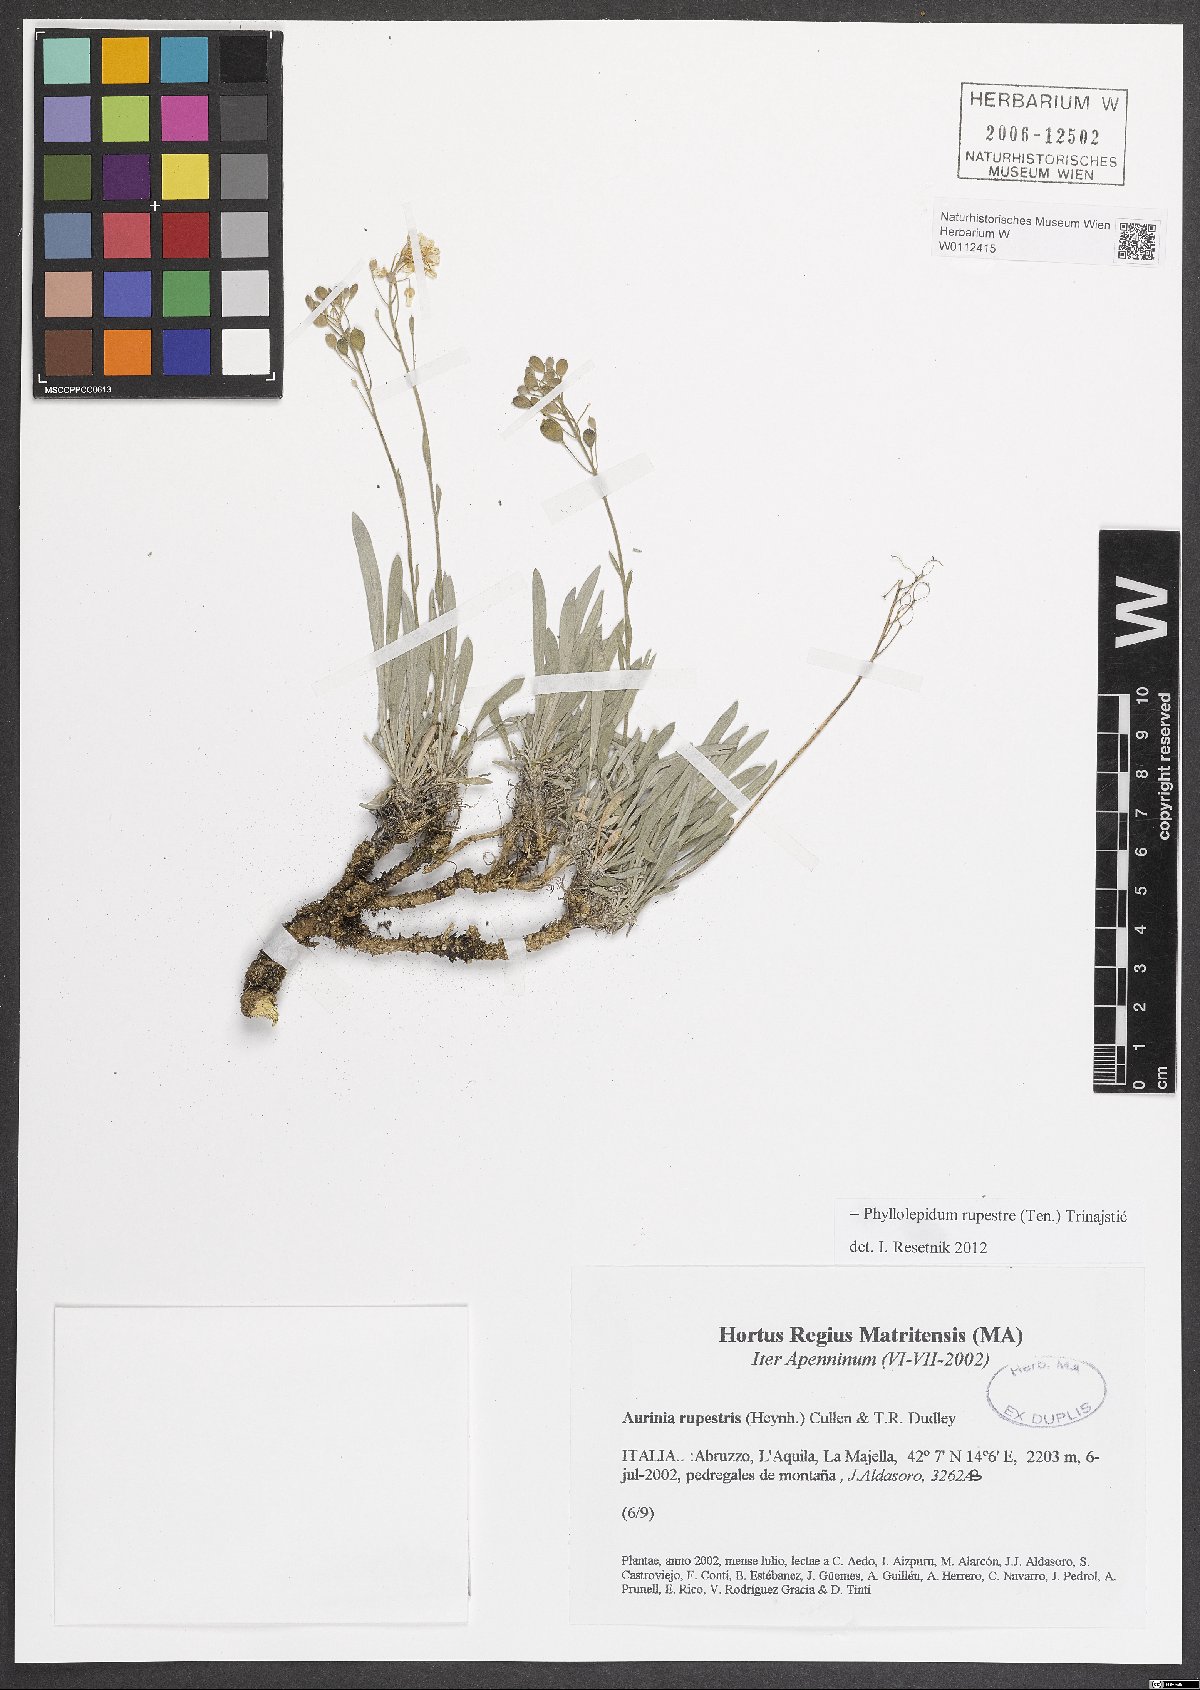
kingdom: Plantae
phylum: Tracheophyta
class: Magnoliopsida
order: Brassicales
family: Brassicaceae
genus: Phyllolepidium
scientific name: Phyllolepidium rupestre
